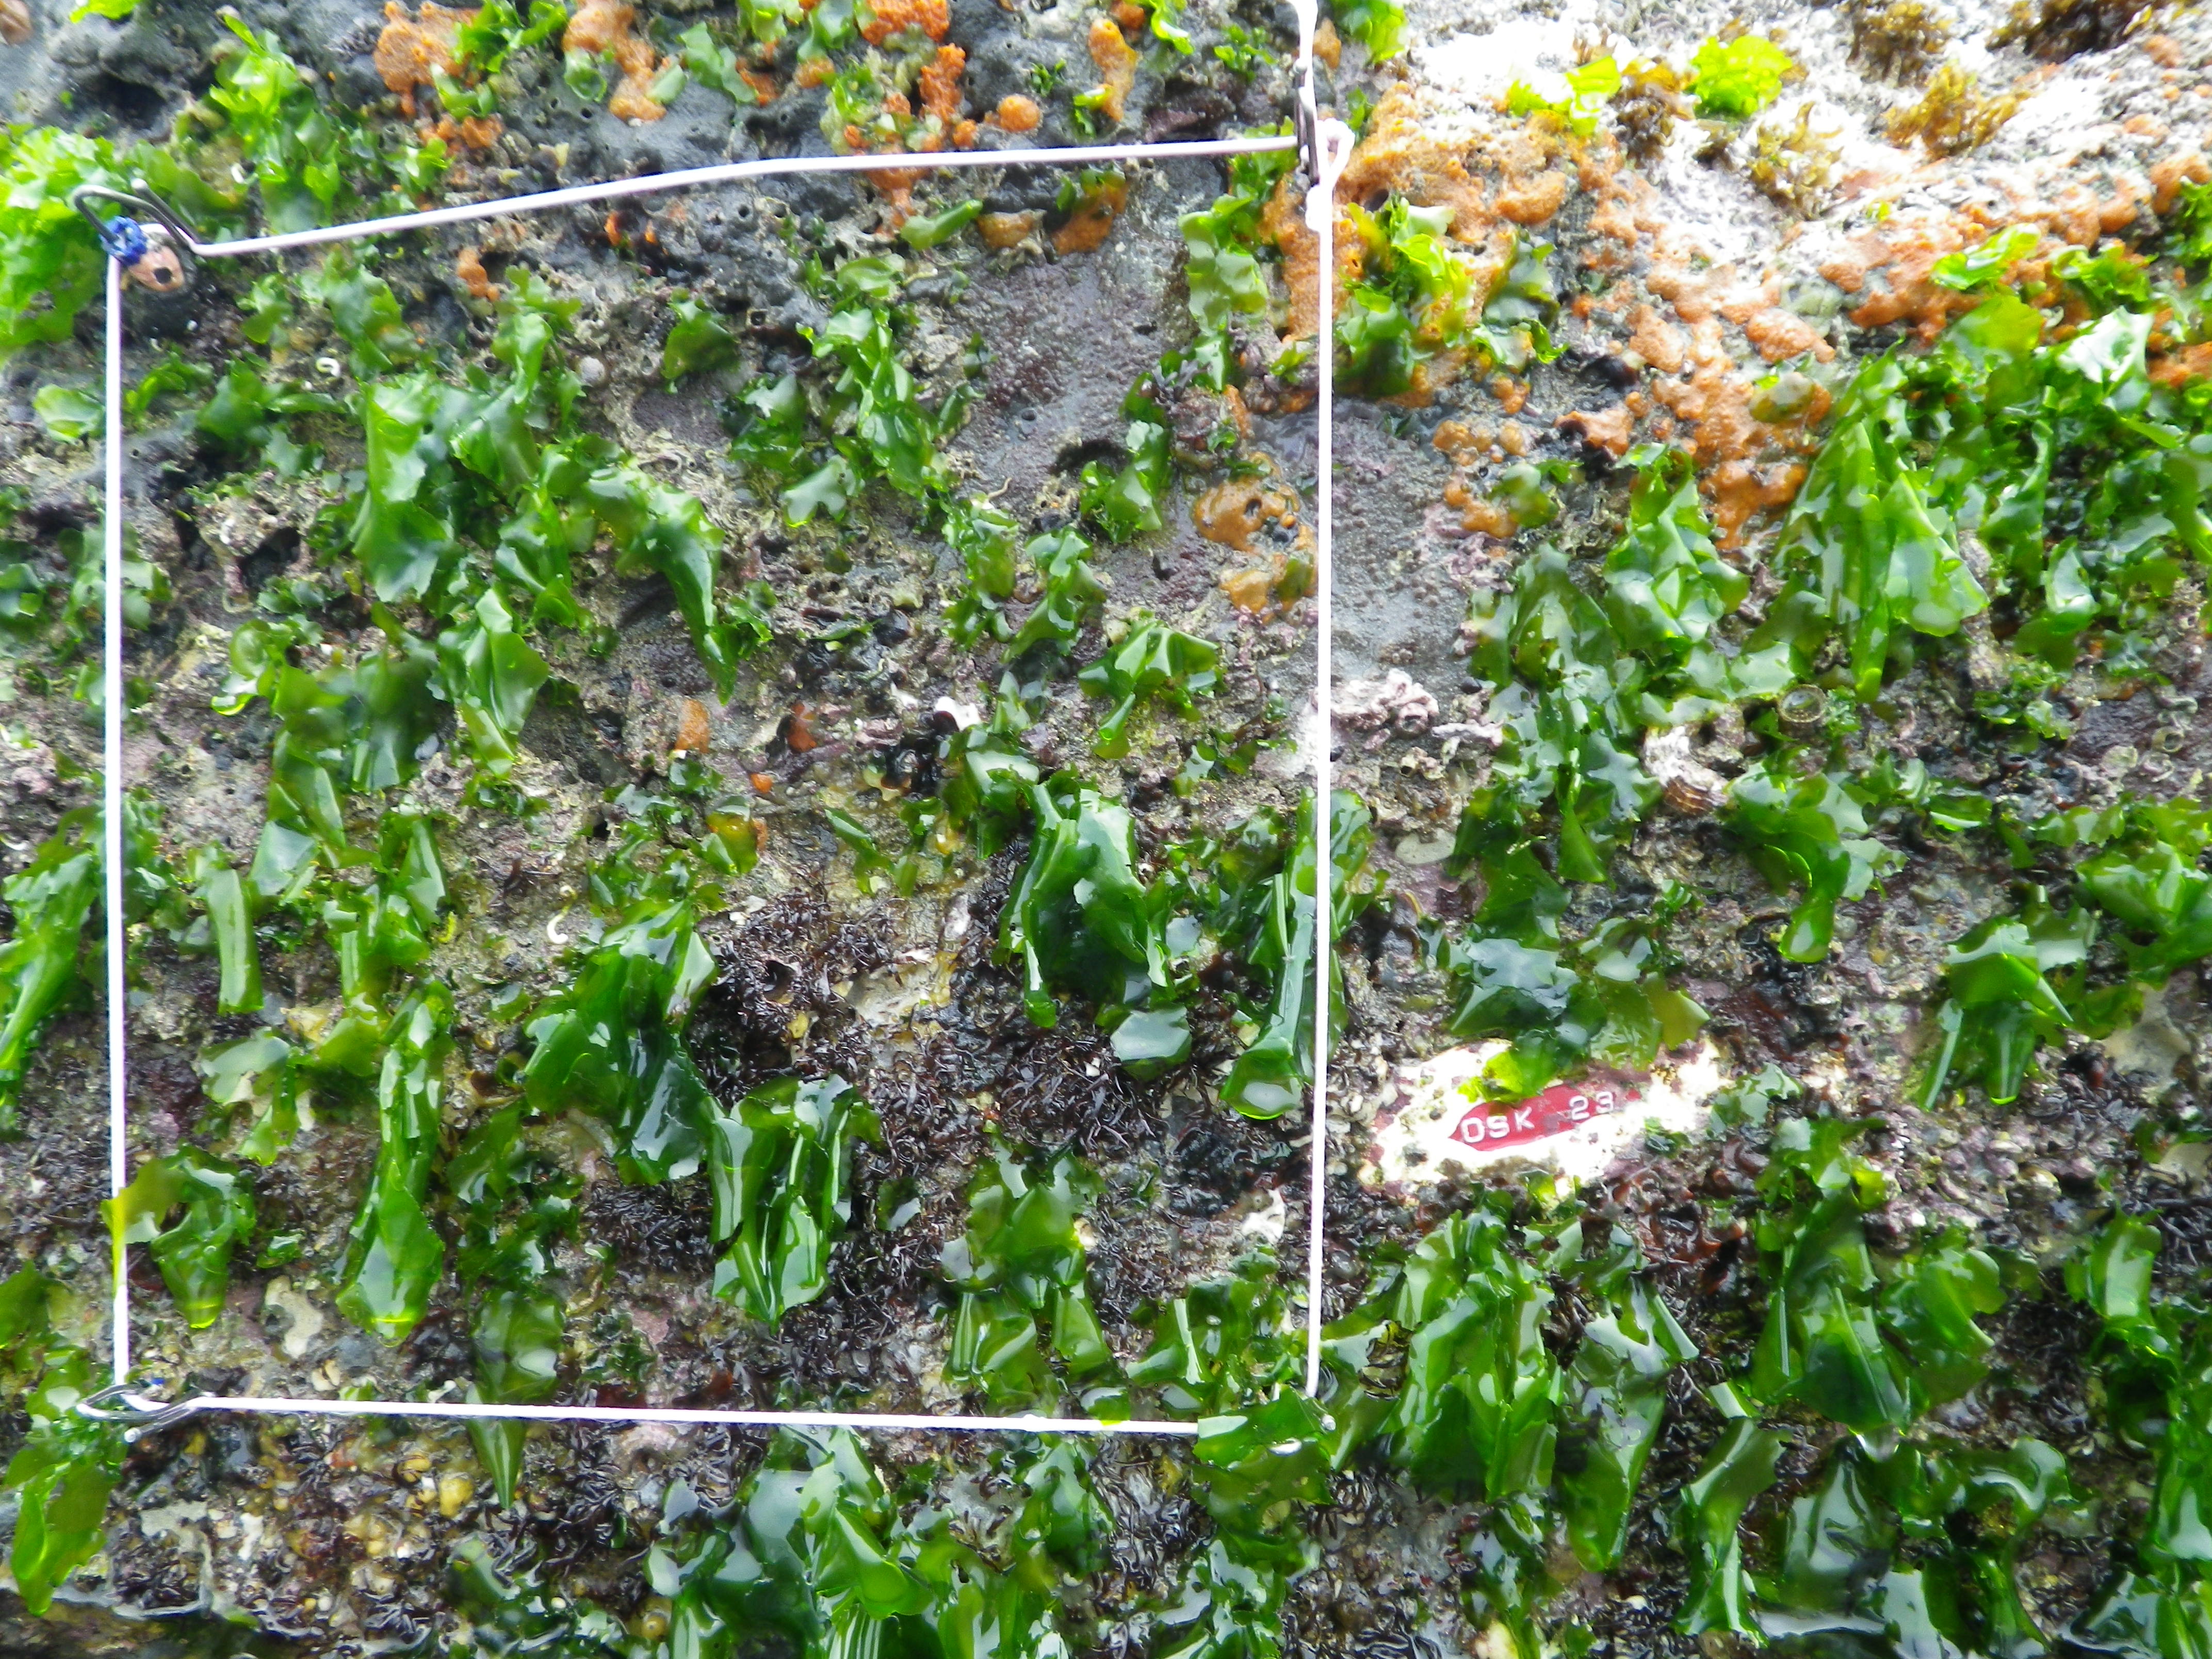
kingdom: Animalia
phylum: Arthropoda
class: Maxillopoda
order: Sessilia
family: Chthamalidae
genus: Chthamalus
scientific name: Chthamalus challengeri
